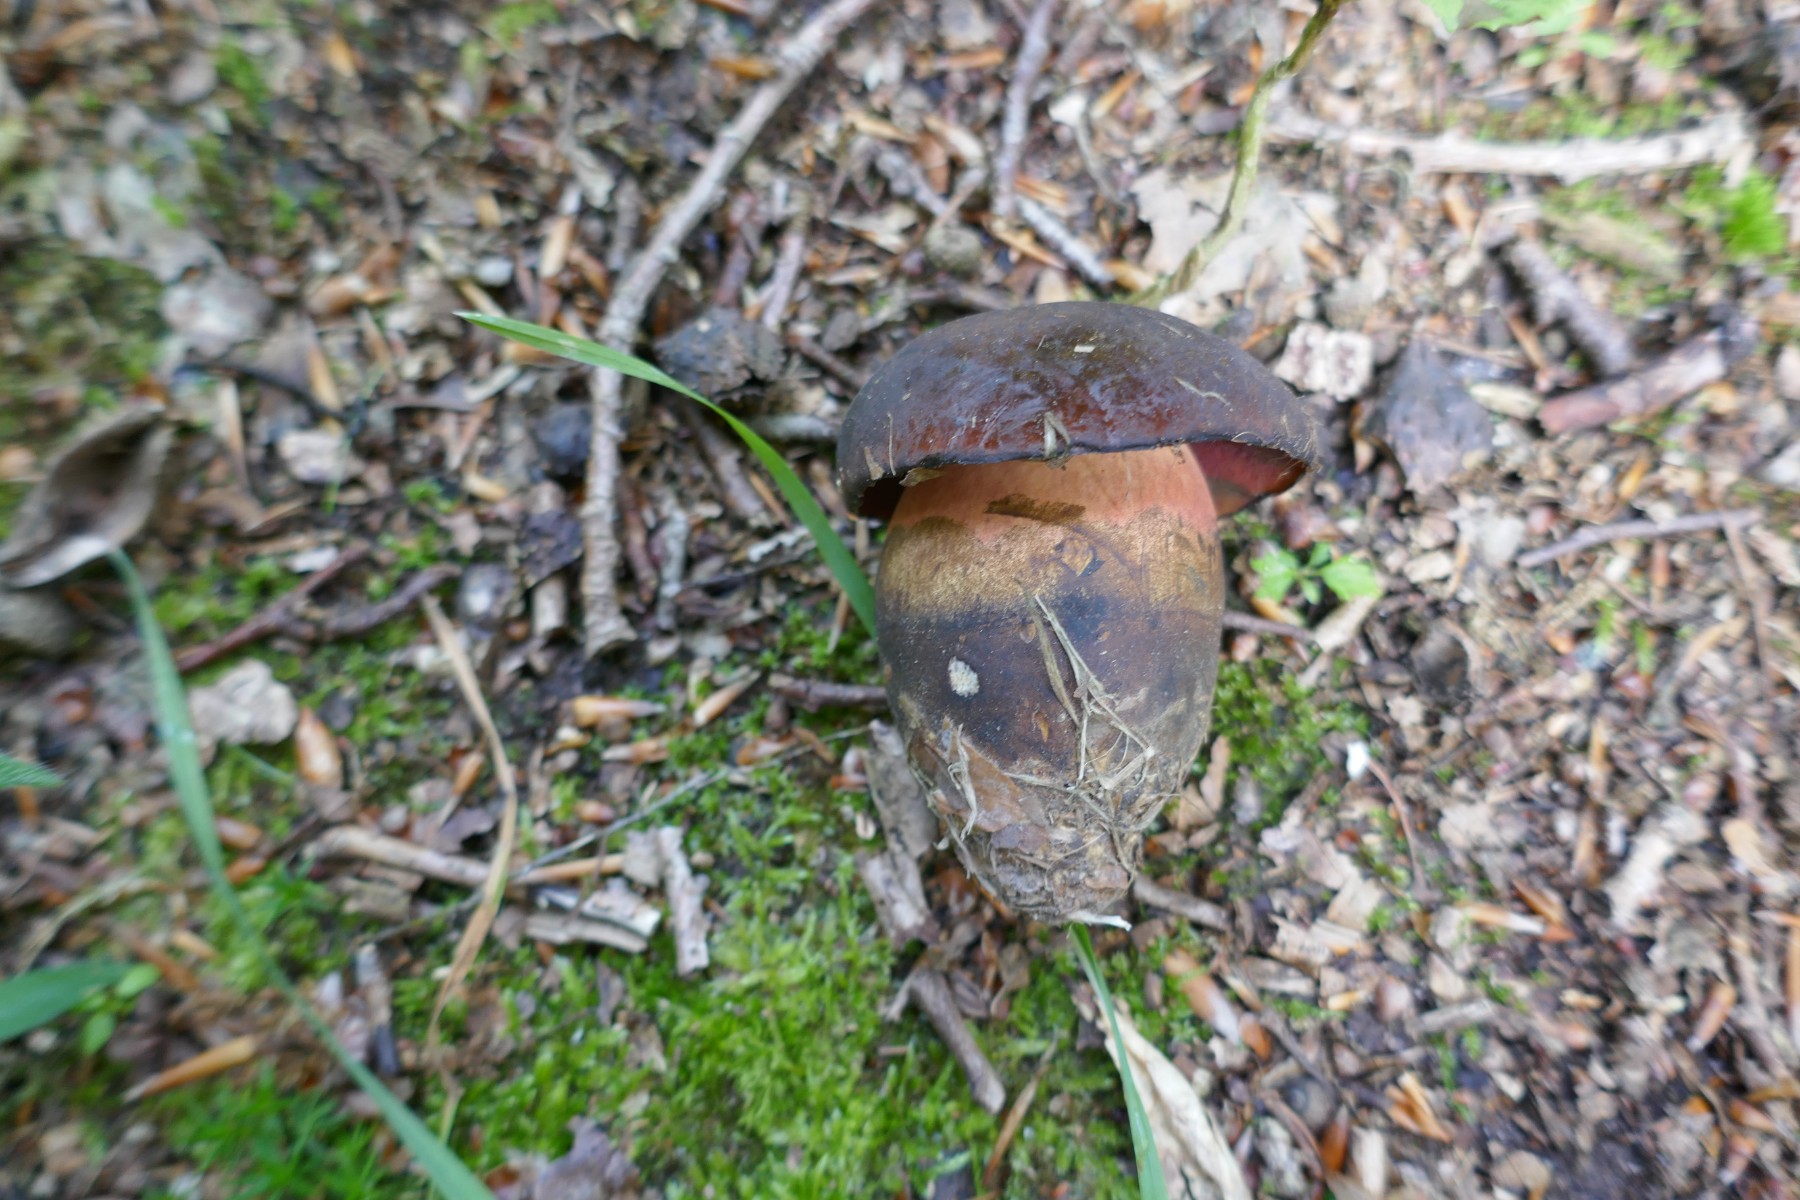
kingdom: Fungi
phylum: Basidiomycota
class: Agaricomycetes
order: Boletales
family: Boletaceae
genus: Neoboletus
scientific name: Neoboletus erythropus
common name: punktstokket indigorørhat
